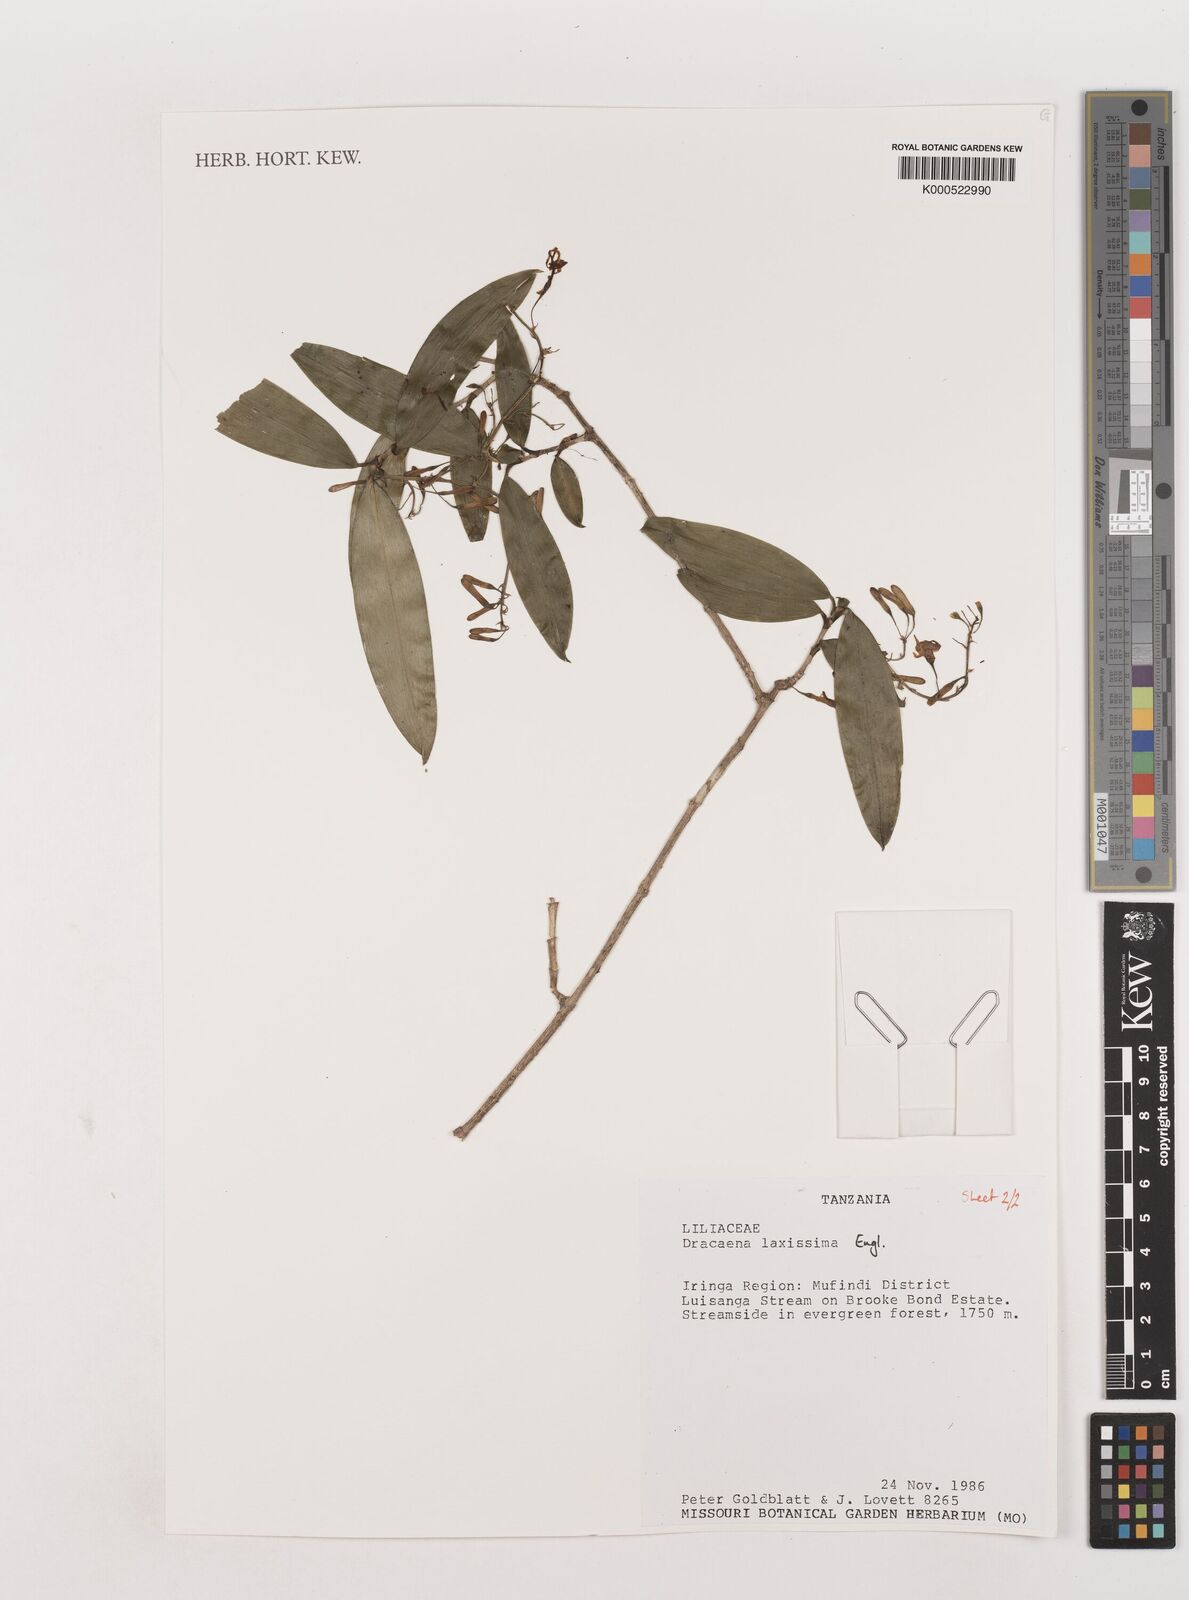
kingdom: Plantae
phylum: Tracheophyta
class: Liliopsida
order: Asparagales
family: Asparagaceae
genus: Dracaena
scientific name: Dracaena laxissima
